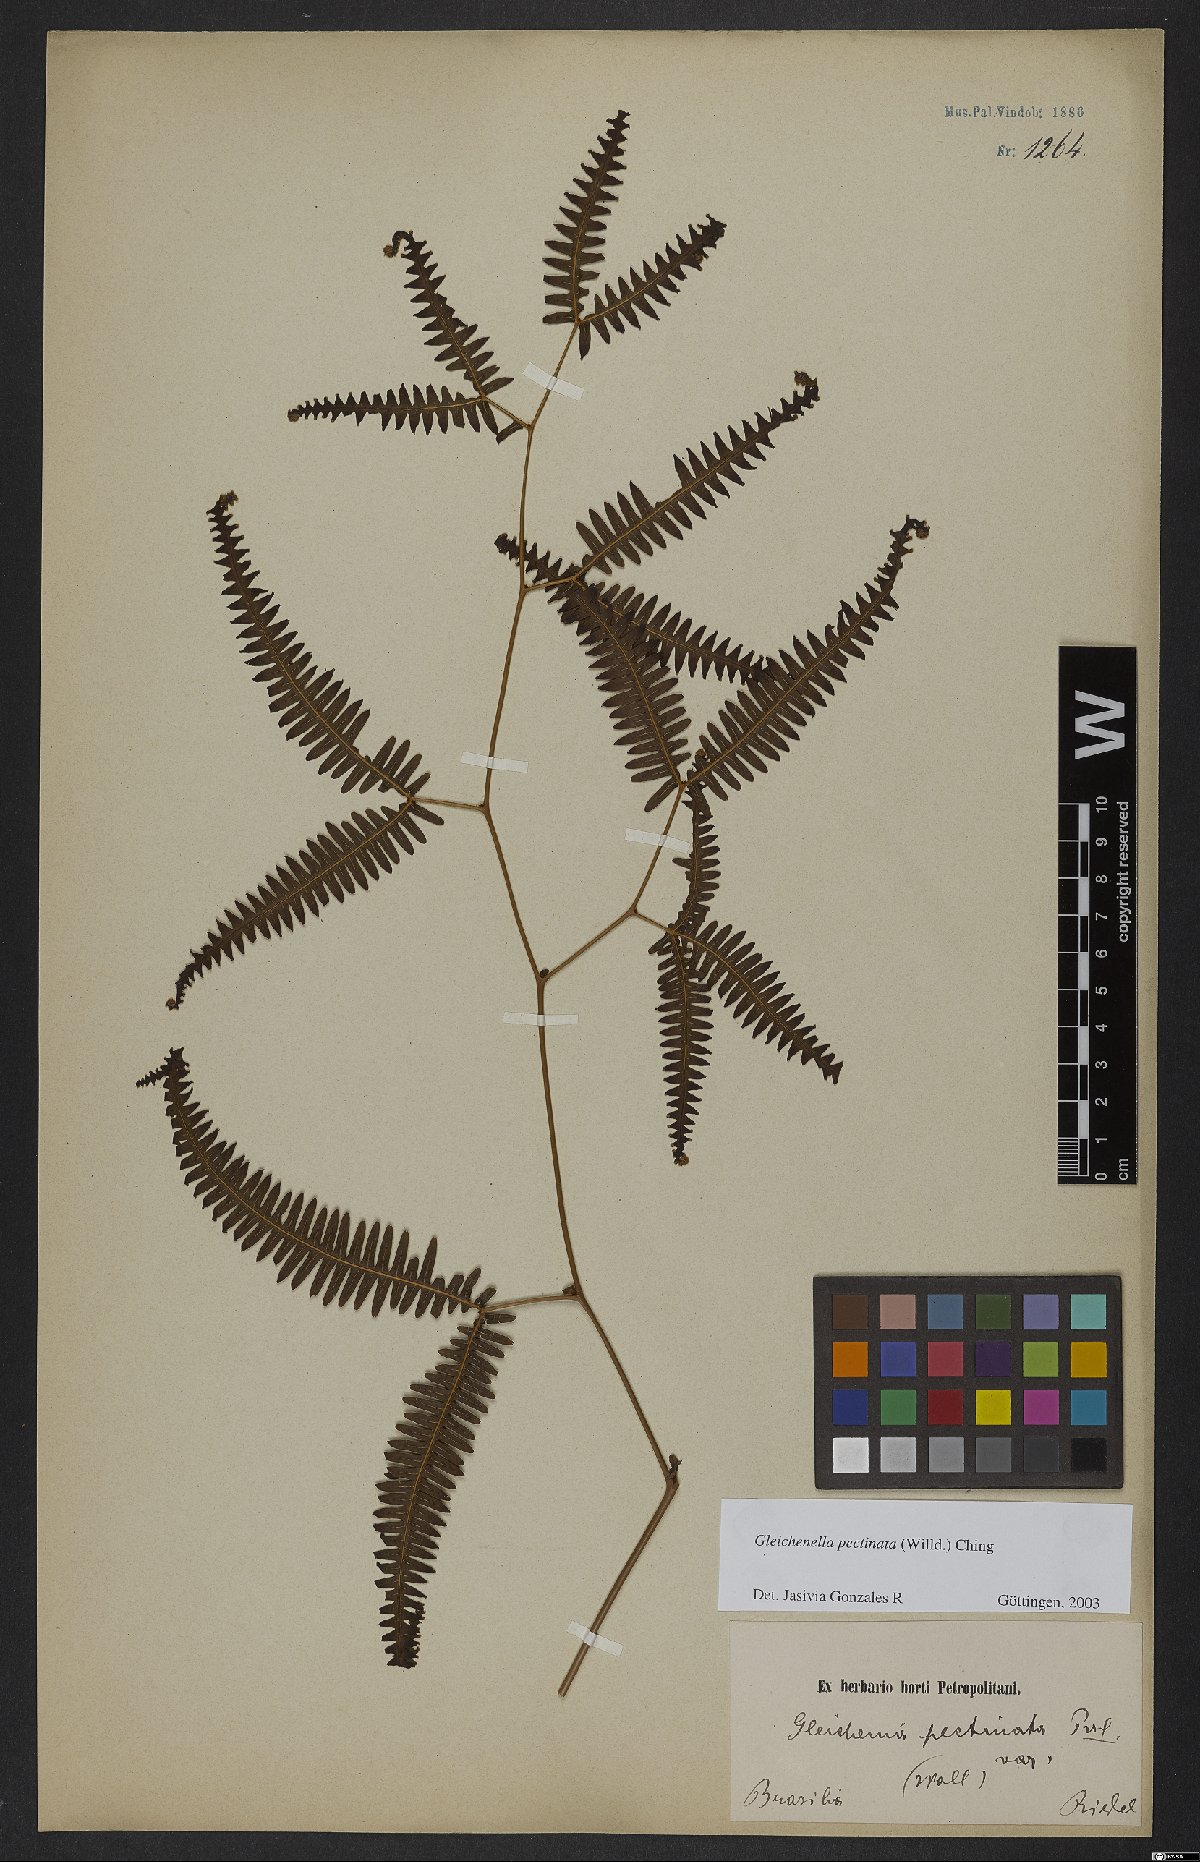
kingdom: Plantae
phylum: Tracheophyta
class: Polypodiopsida
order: Gleicheniales
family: Gleicheniaceae
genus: Gleichenella
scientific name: Gleichenella pectinata
